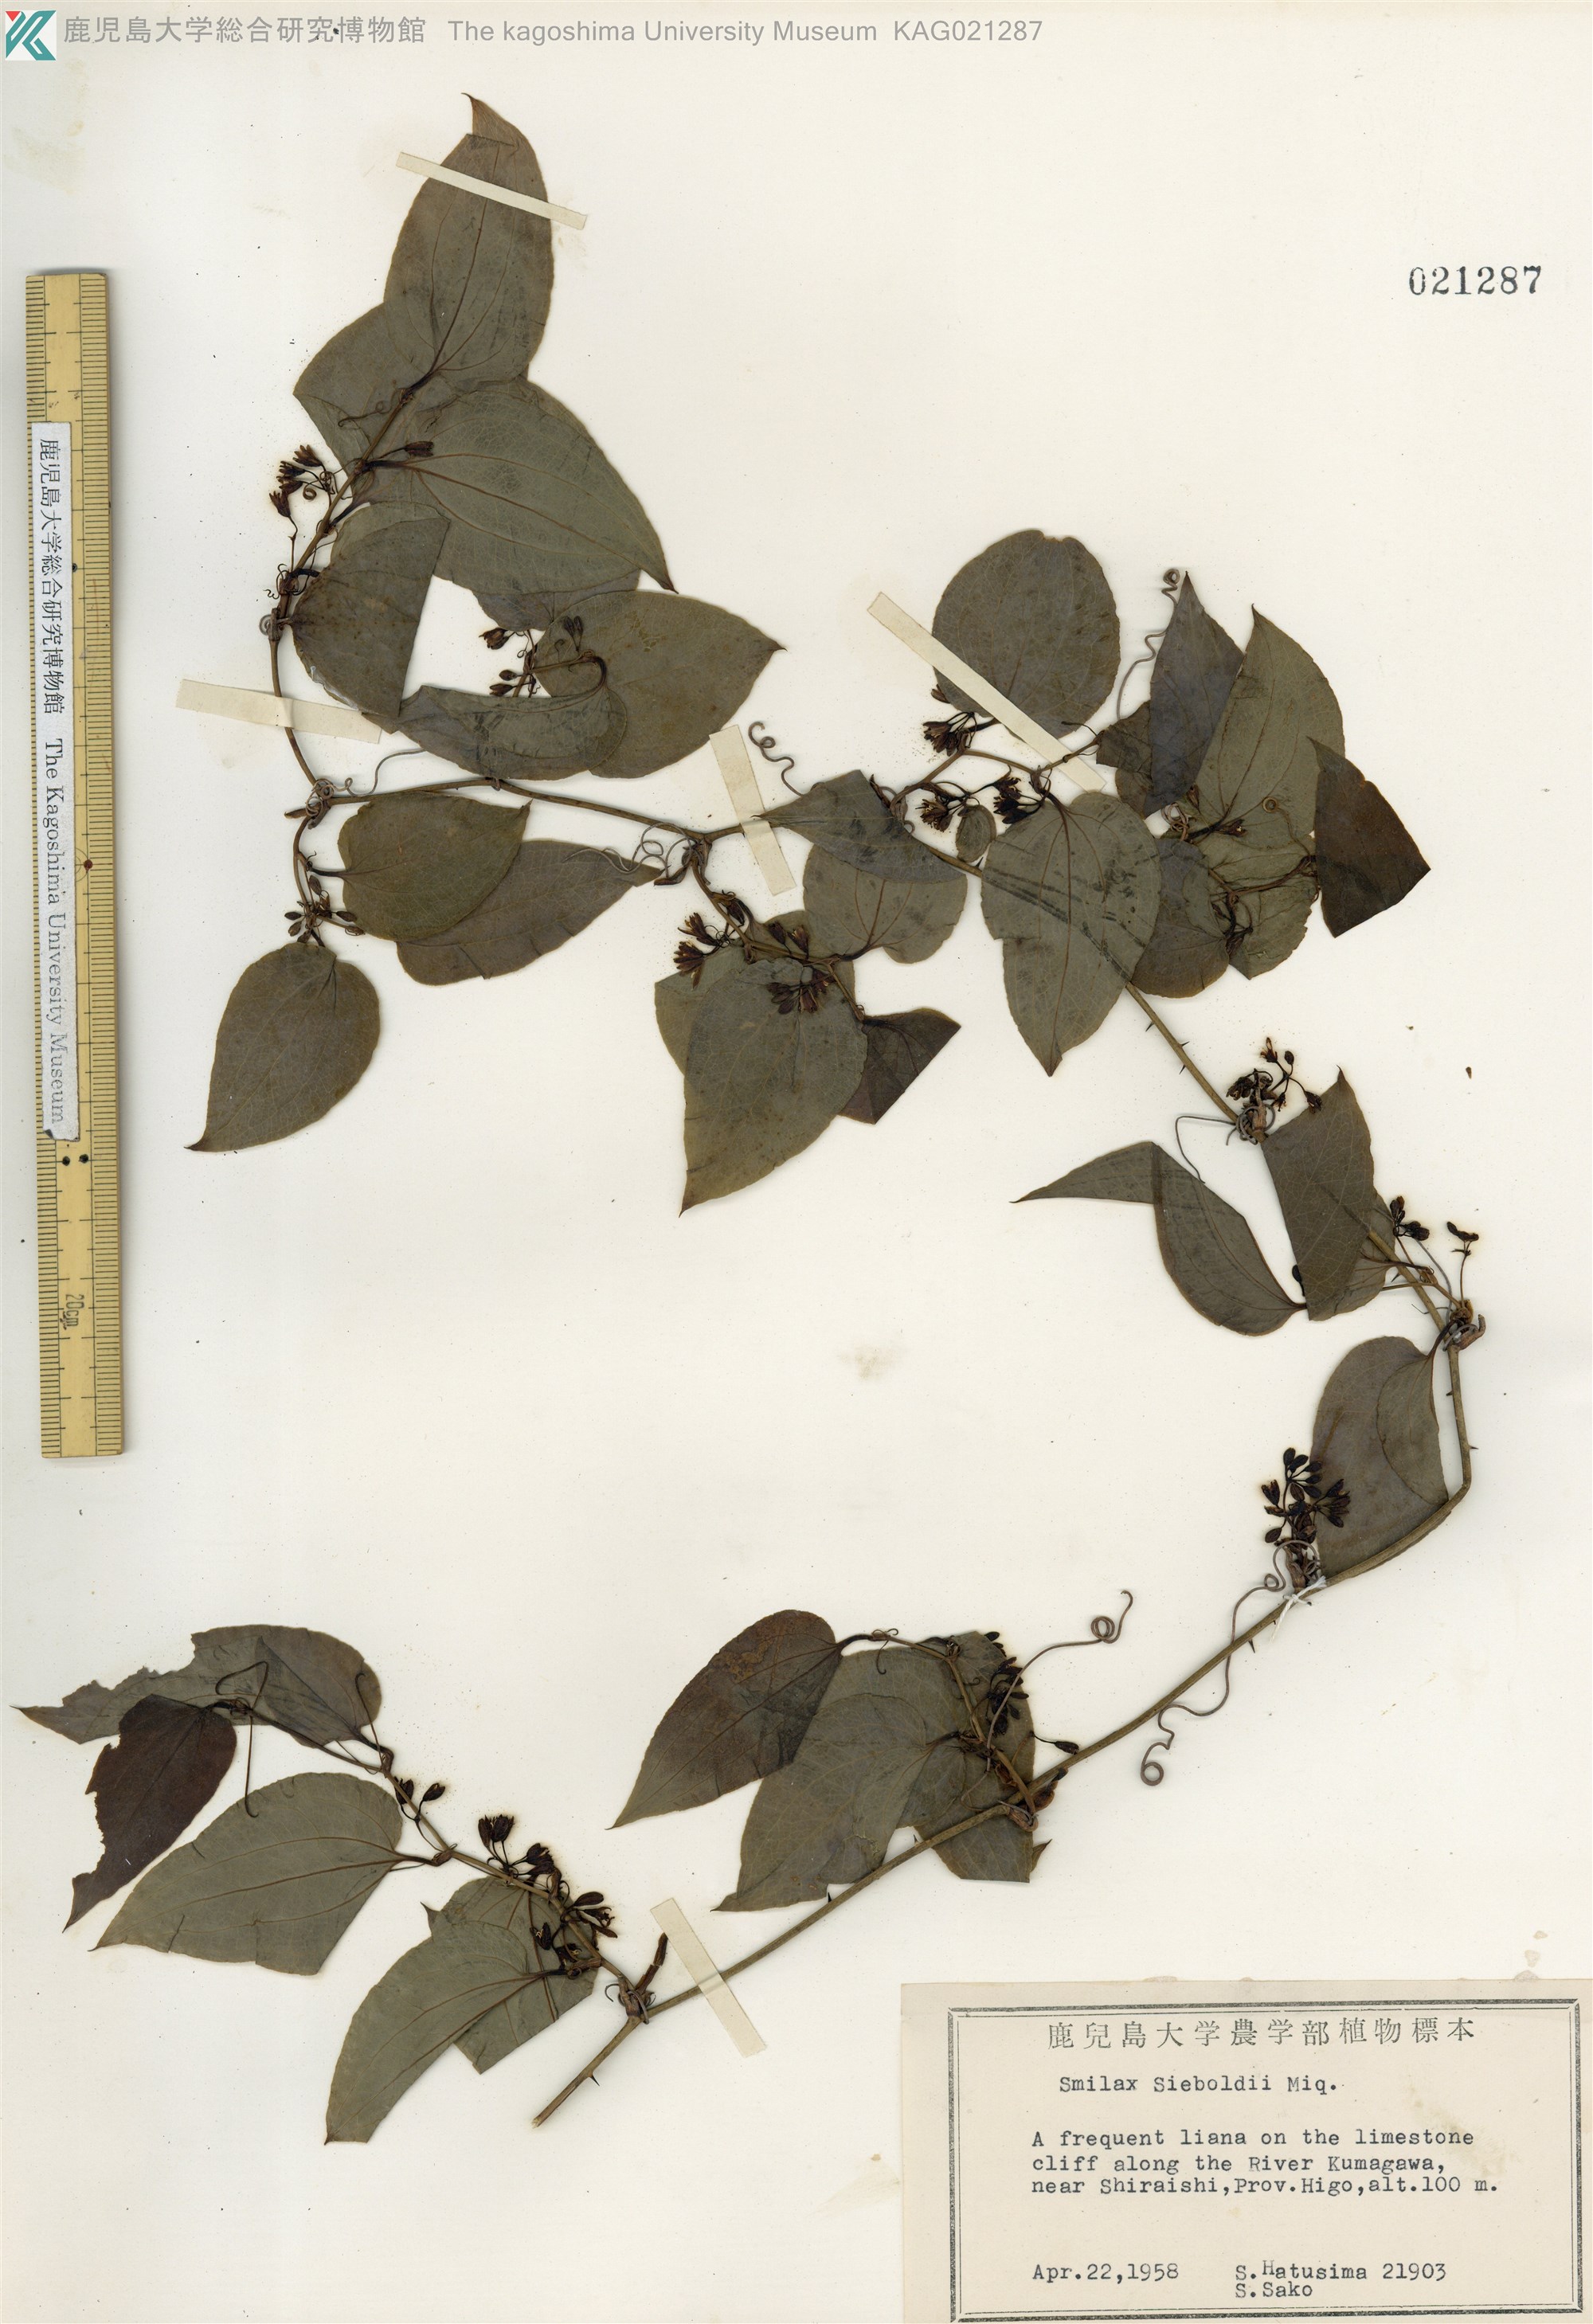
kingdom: Plantae
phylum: Tracheophyta
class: Liliopsida
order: Liliales
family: Smilacaceae
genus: Smilax
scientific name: Smilax sieboldii
